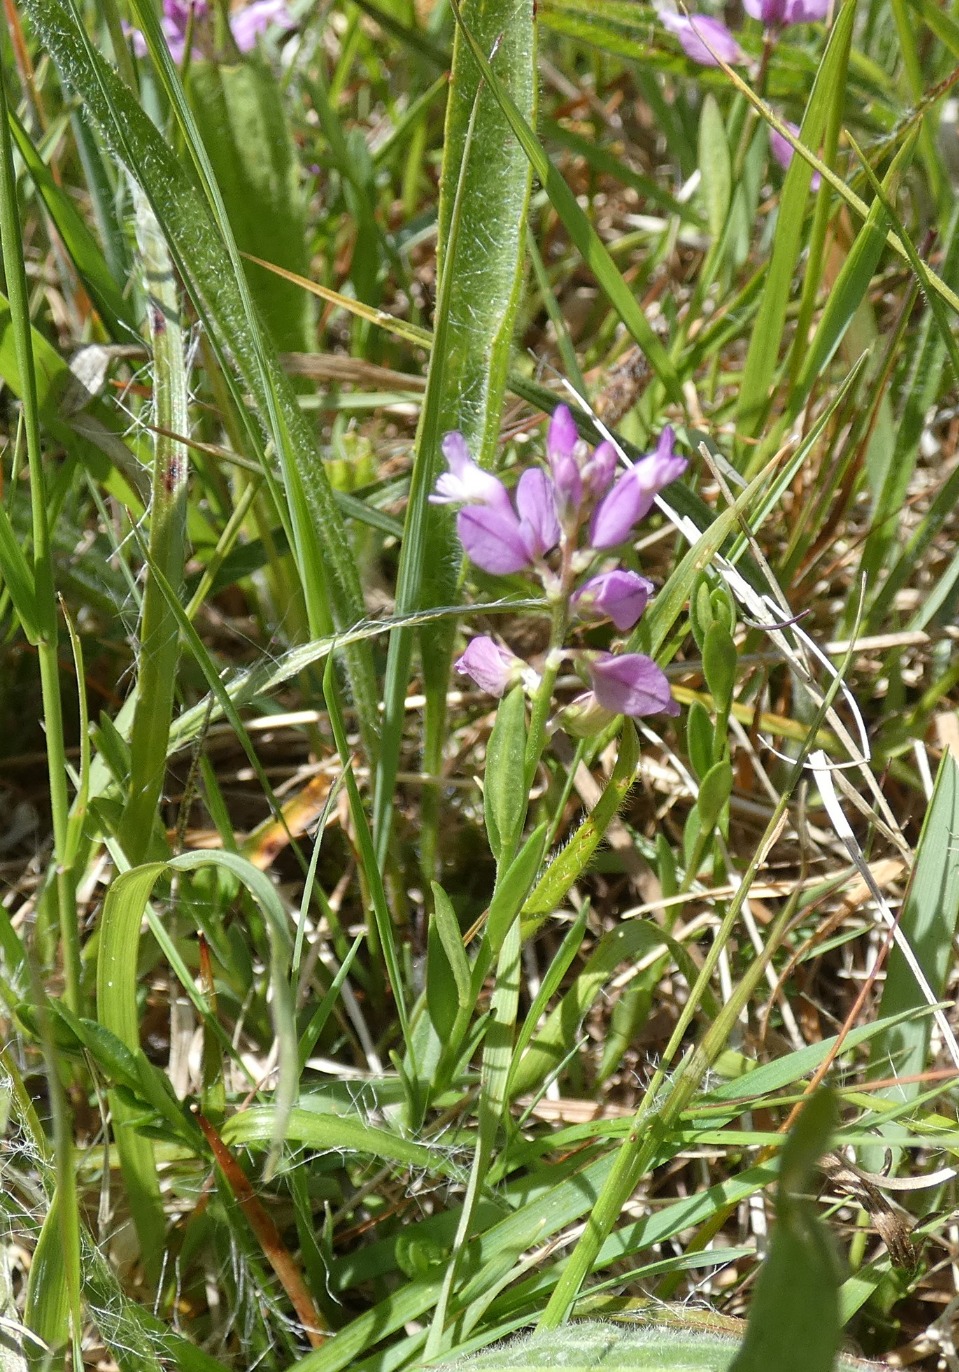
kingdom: Plantae
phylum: Tracheophyta
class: Magnoliopsida
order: Fabales
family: Polygalaceae
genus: Polygala
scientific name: Polygala vulgaris
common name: Almindelig mælkeurt
